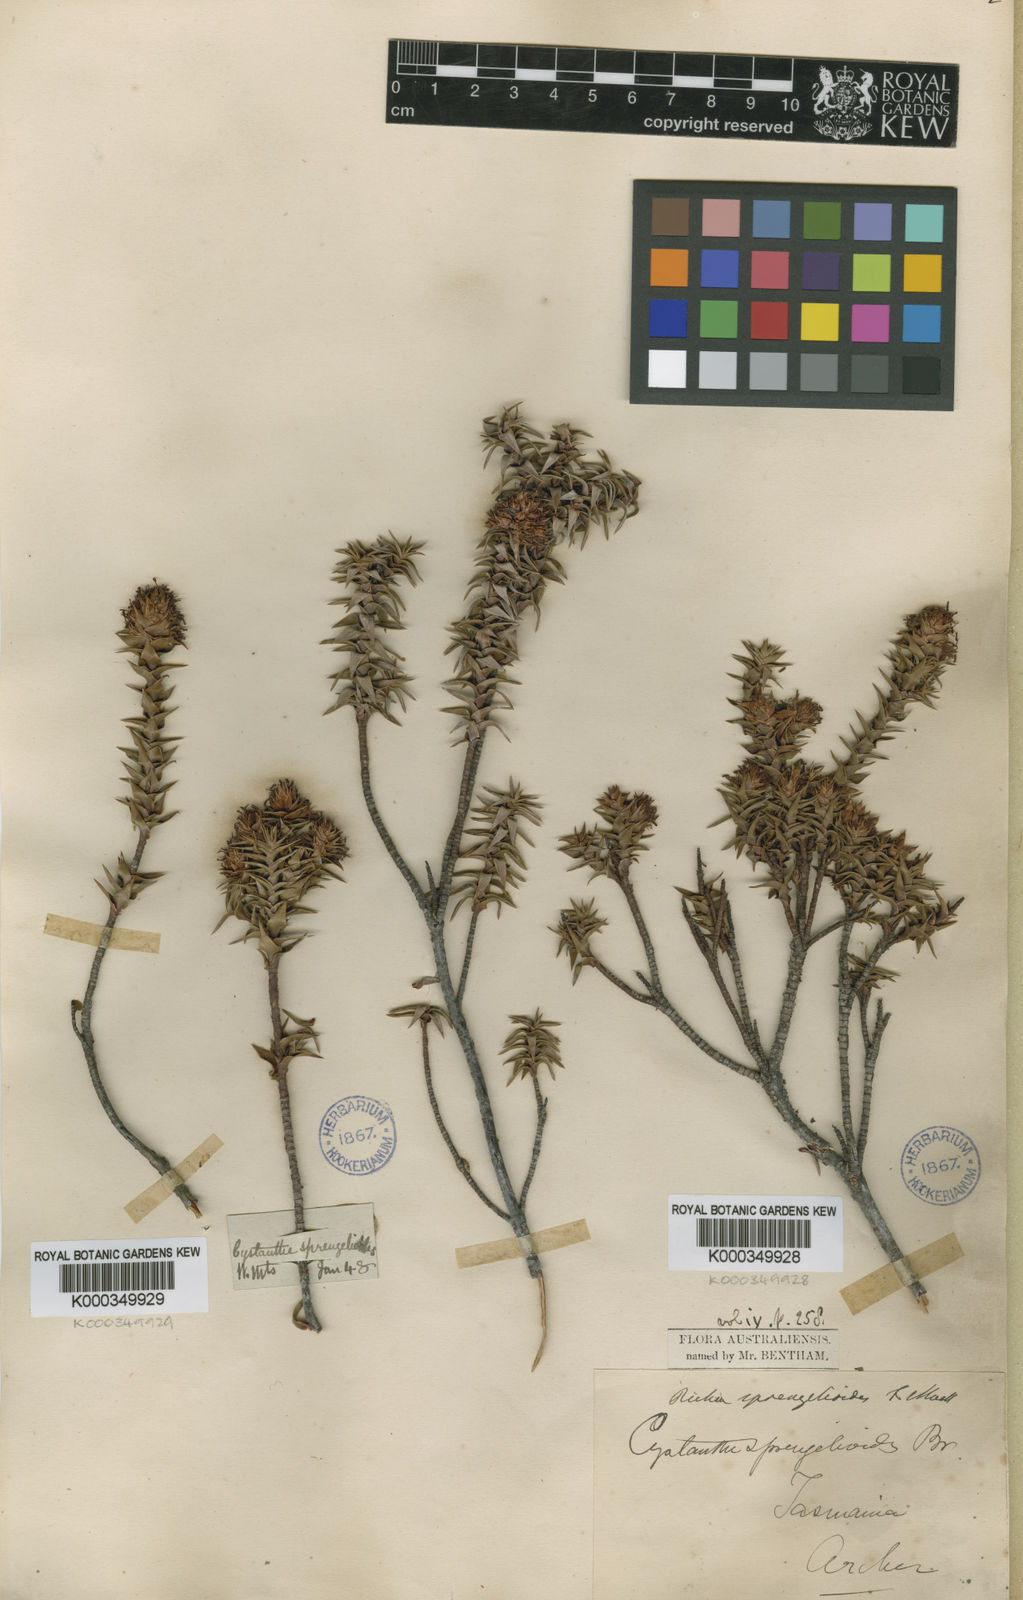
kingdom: Plantae
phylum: Tracheophyta
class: Magnoliopsida
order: Ericales
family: Ericaceae
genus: Dracophyllum
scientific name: Dracophyllum sprengelioides
